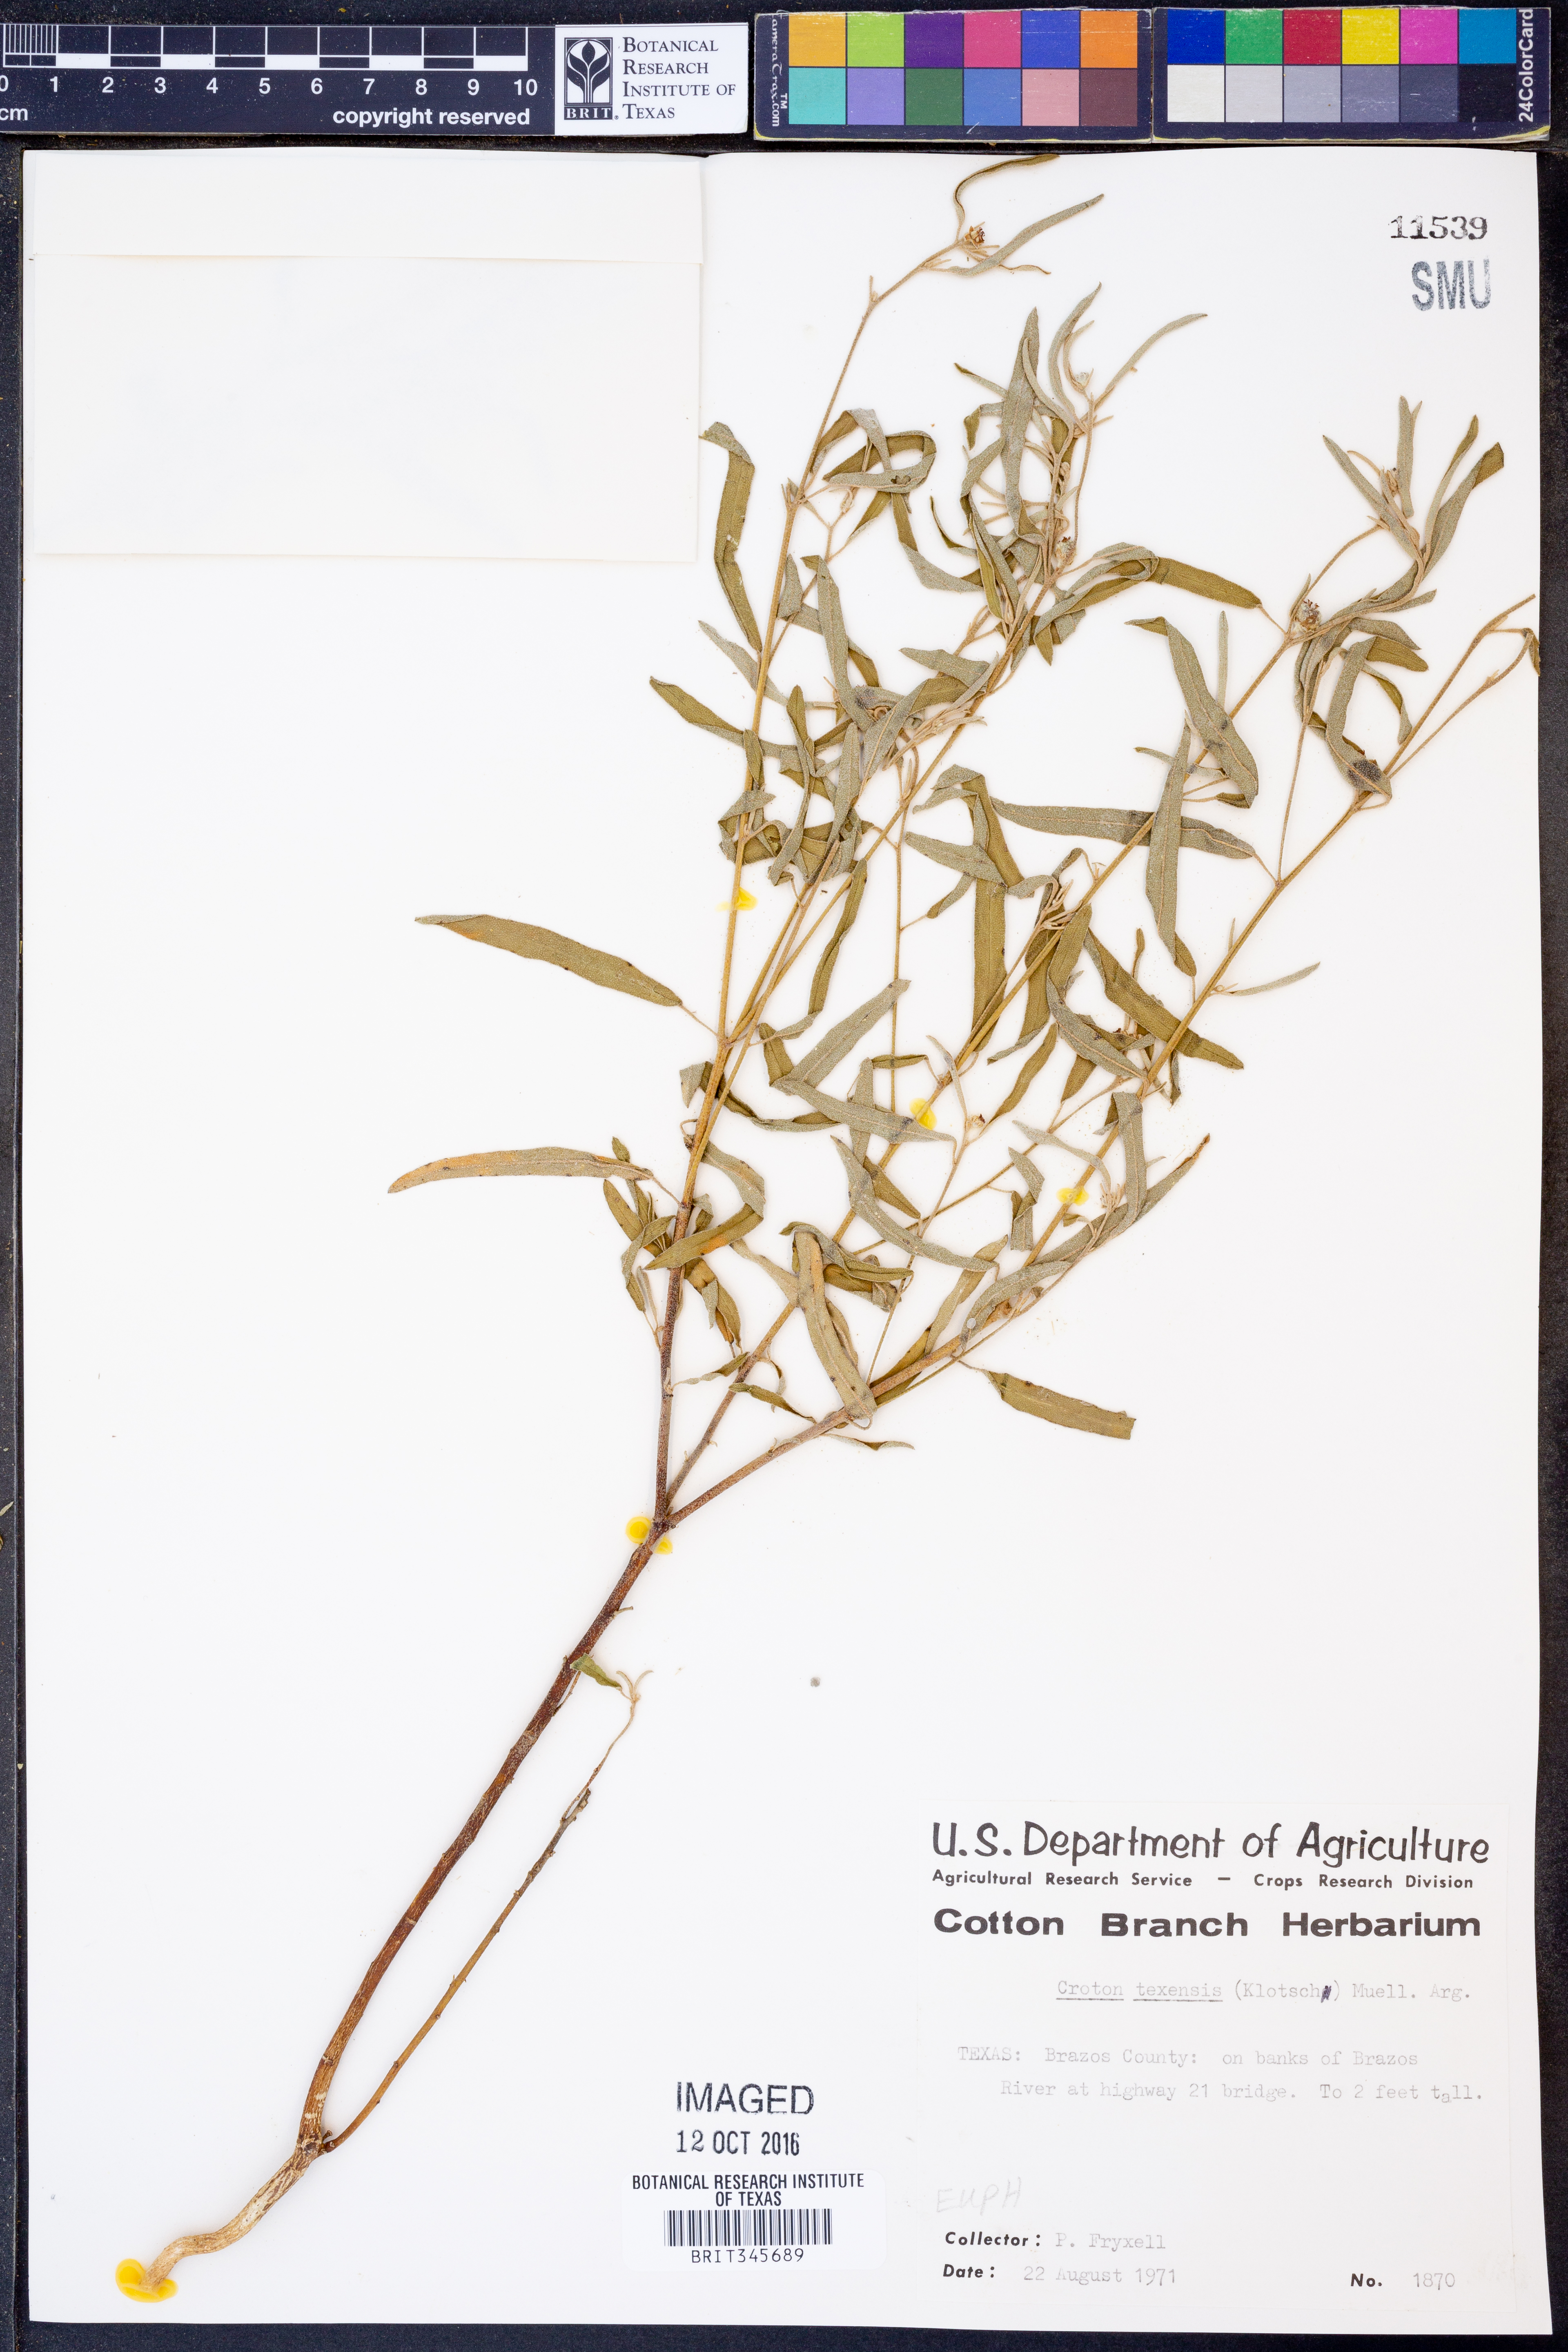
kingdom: Plantae
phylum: Tracheophyta
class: Magnoliopsida
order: Malpighiales
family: Euphorbiaceae
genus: Croton
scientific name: Croton texensis
